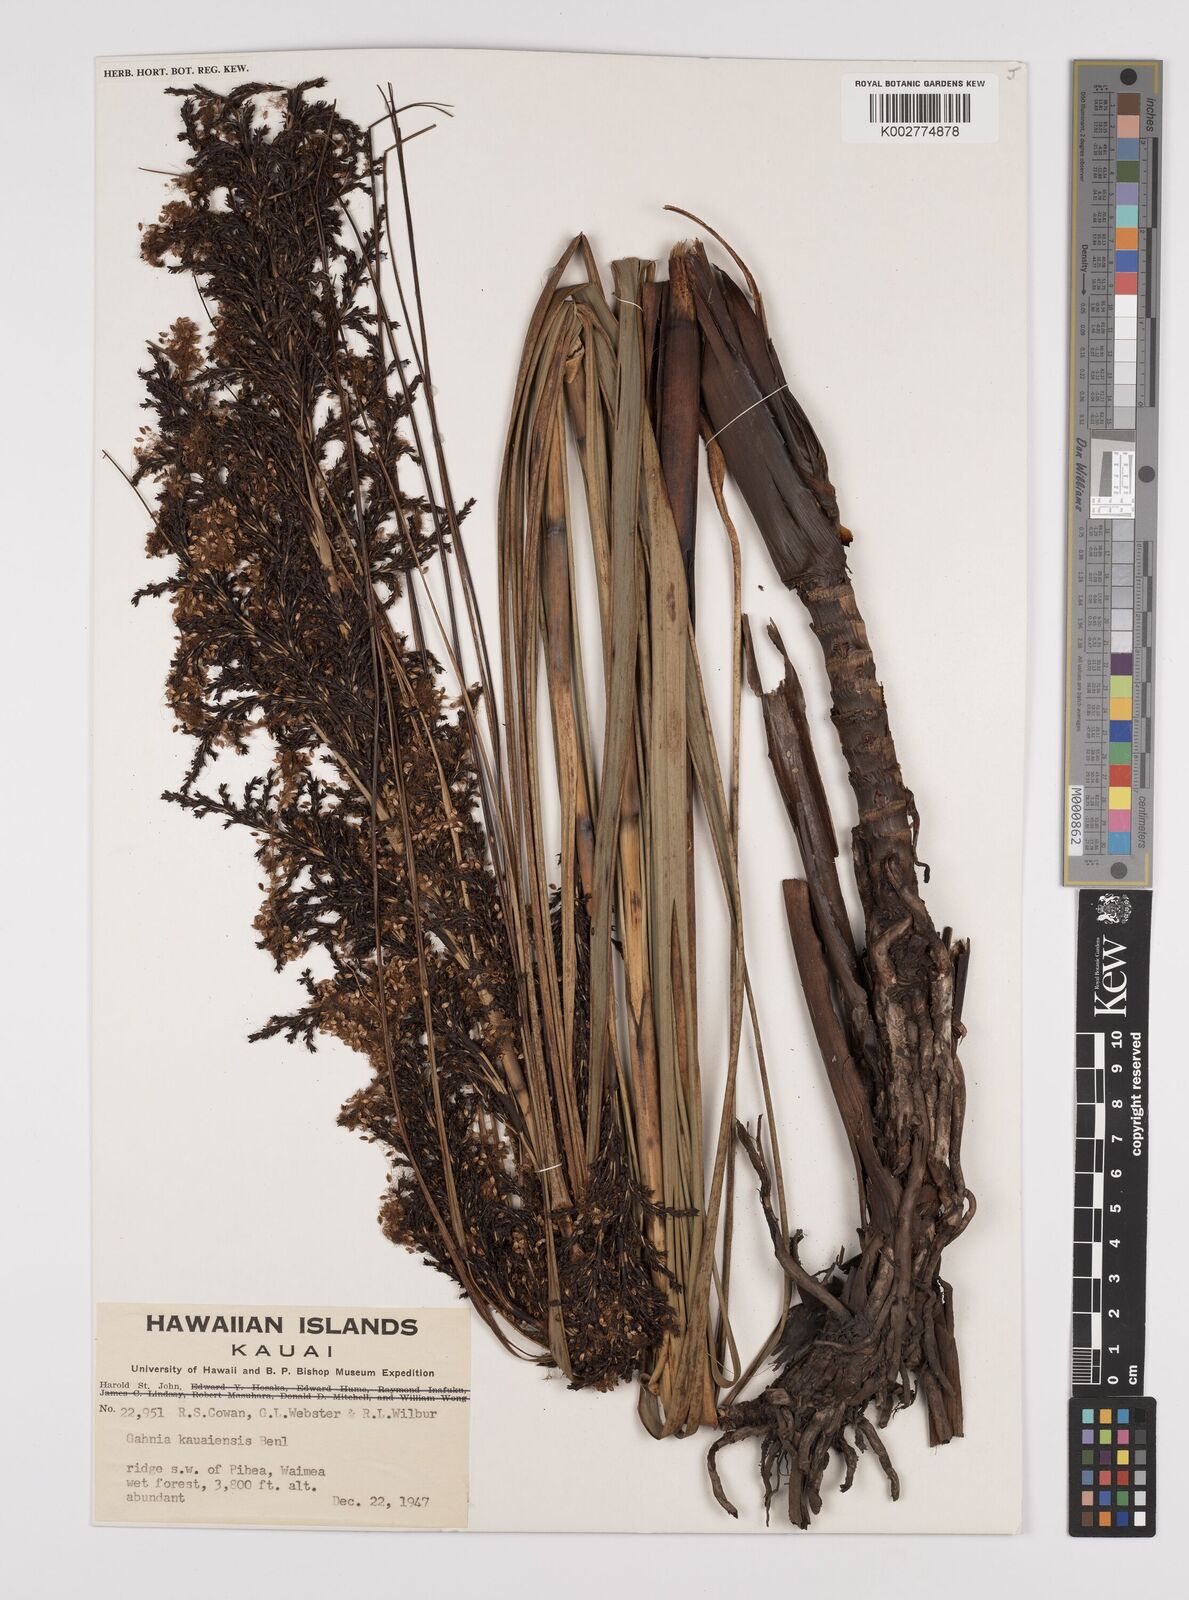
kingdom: Plantae
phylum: Tracheophyta
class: Liliopsida
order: Poales
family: Cyperaceae
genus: Gahnia
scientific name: Gahnia vitiensis
